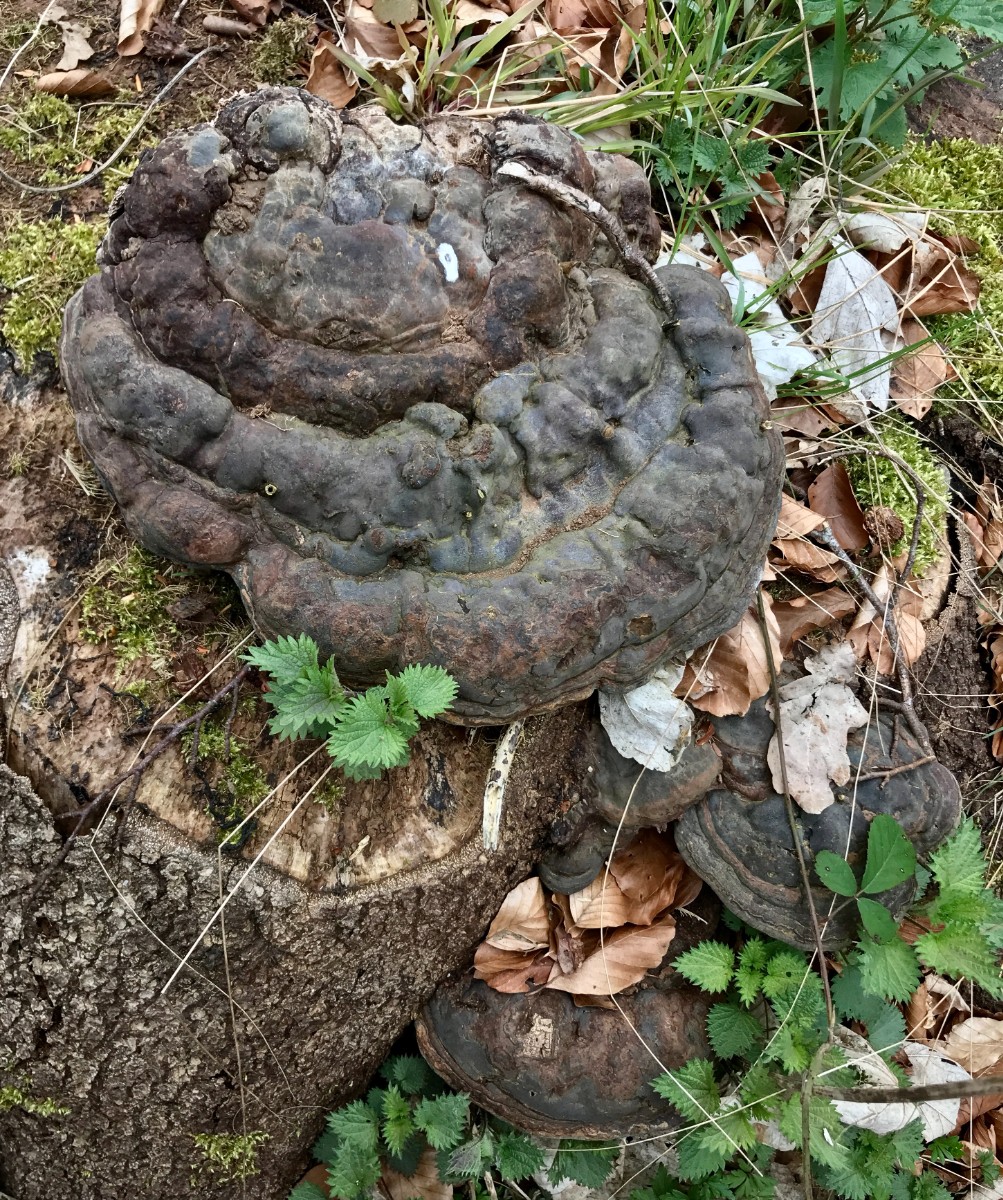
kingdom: Fungi
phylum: Basidiomycota
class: Agaricomycetes
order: Polyporales
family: Polyporaceae
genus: Ganoderma
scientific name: Ganoderma pfeifferi
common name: kobberrød lakporesvamp
